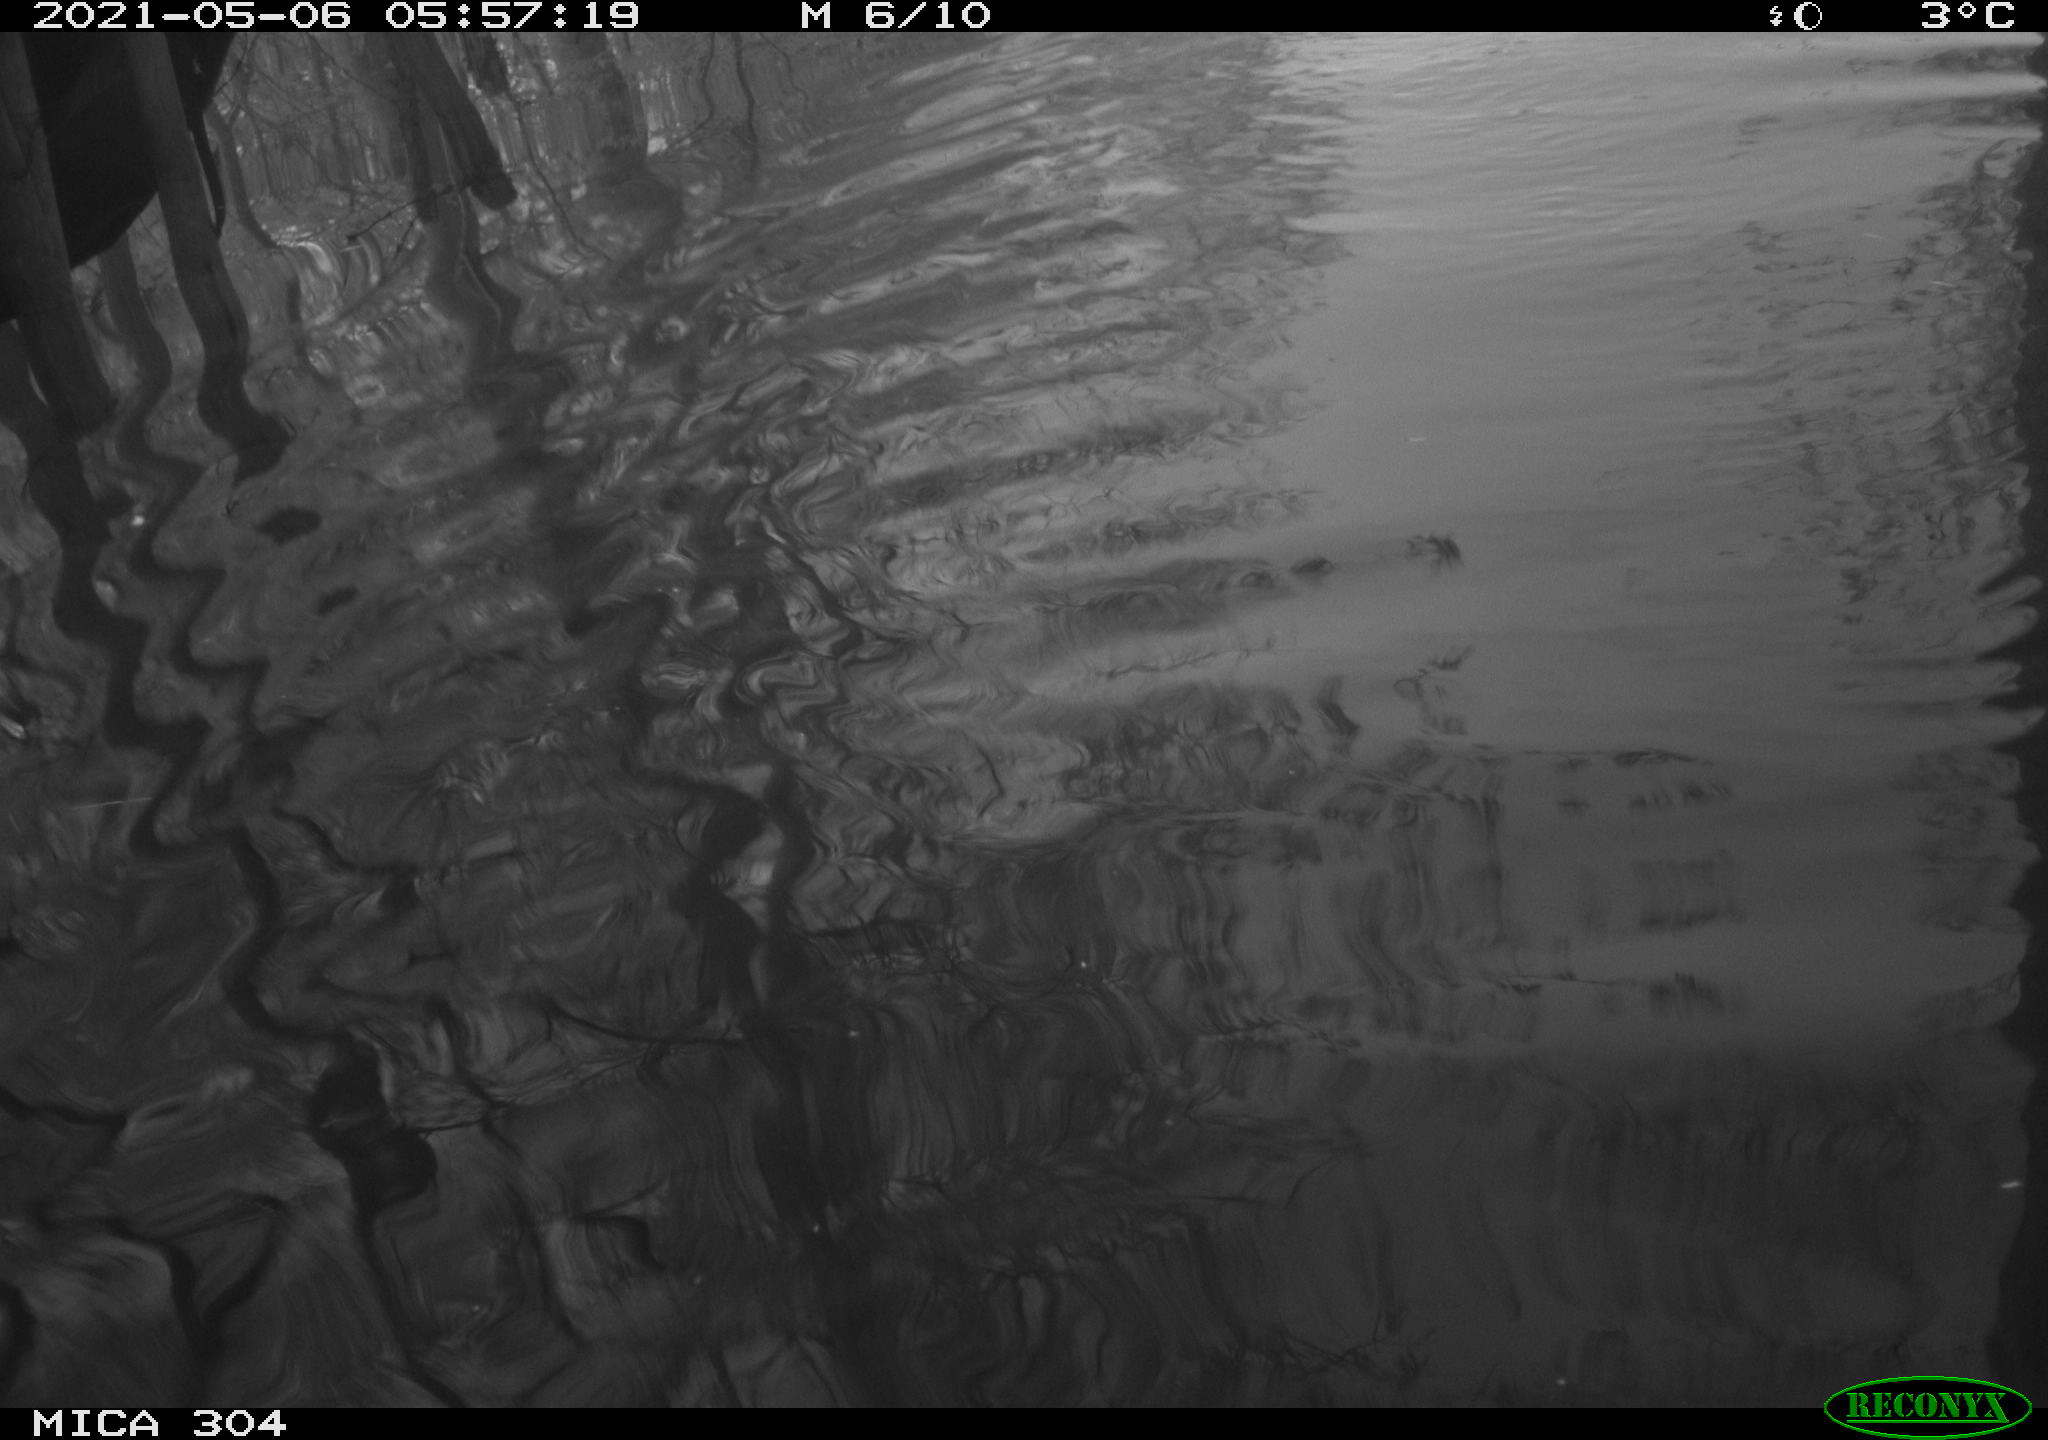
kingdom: Animalia
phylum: Chordata
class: Aves
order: Gruiformes
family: Rallidae
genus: Fulica
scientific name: Fulica atra
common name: Eurasian coot
